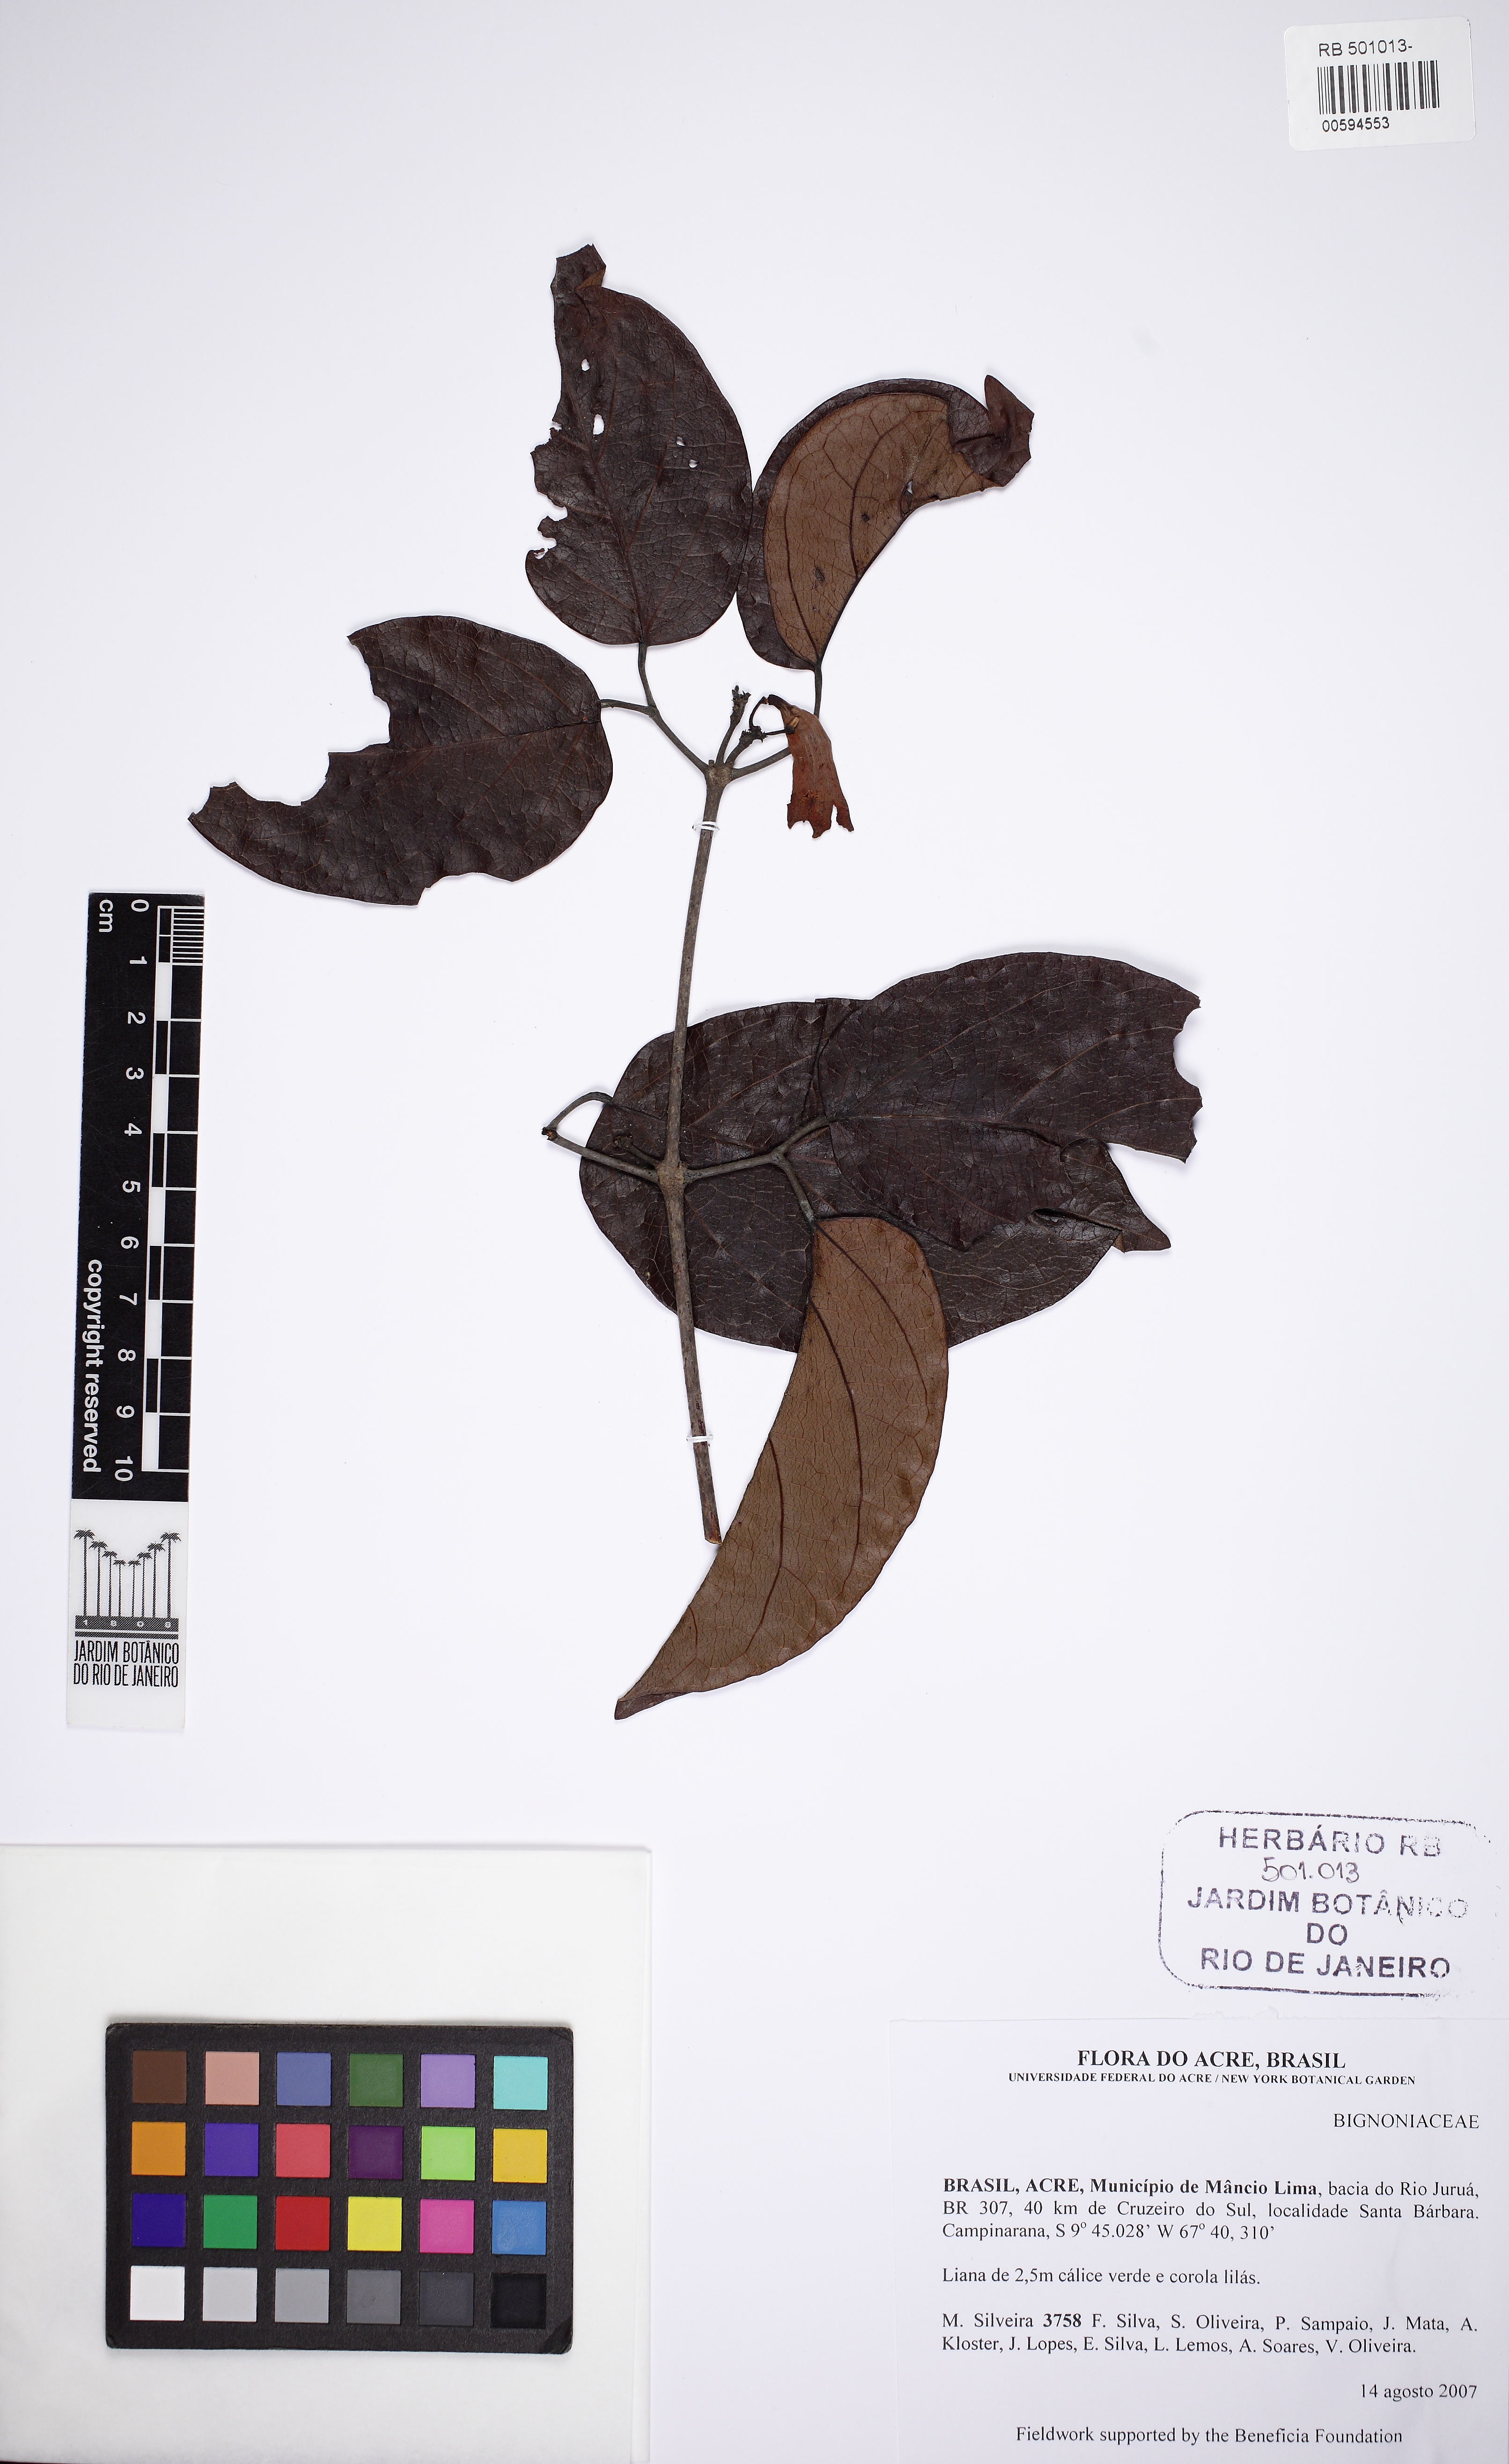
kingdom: Plantae
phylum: Tracheophyta
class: Magnoliopsida
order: Lamiales
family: Bignoniaceae
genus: Lundia
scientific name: Lundia erionema
